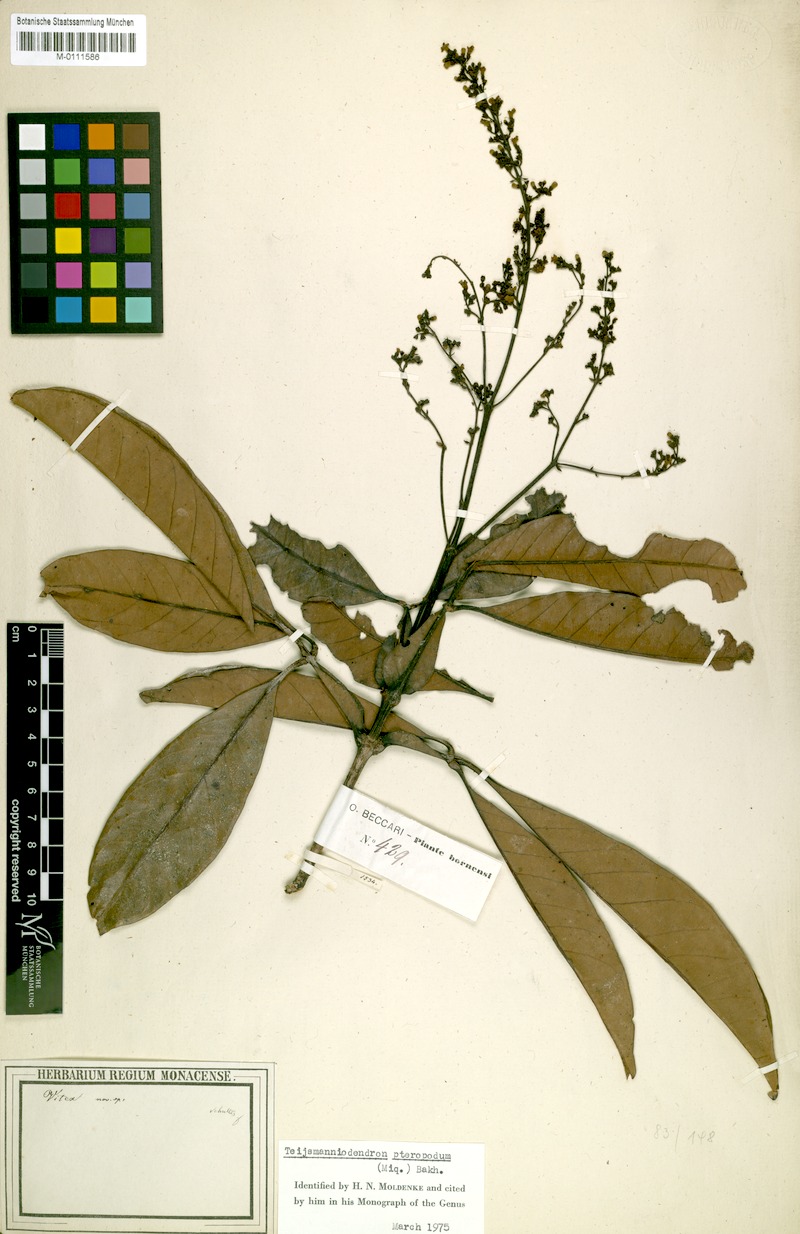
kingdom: Plantae
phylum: Tracheophyta
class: Magnoliopsida
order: Lamiales
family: Lamiaceae
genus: Teijsmanniodendron
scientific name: Teijsmanniodendron pteropodum
